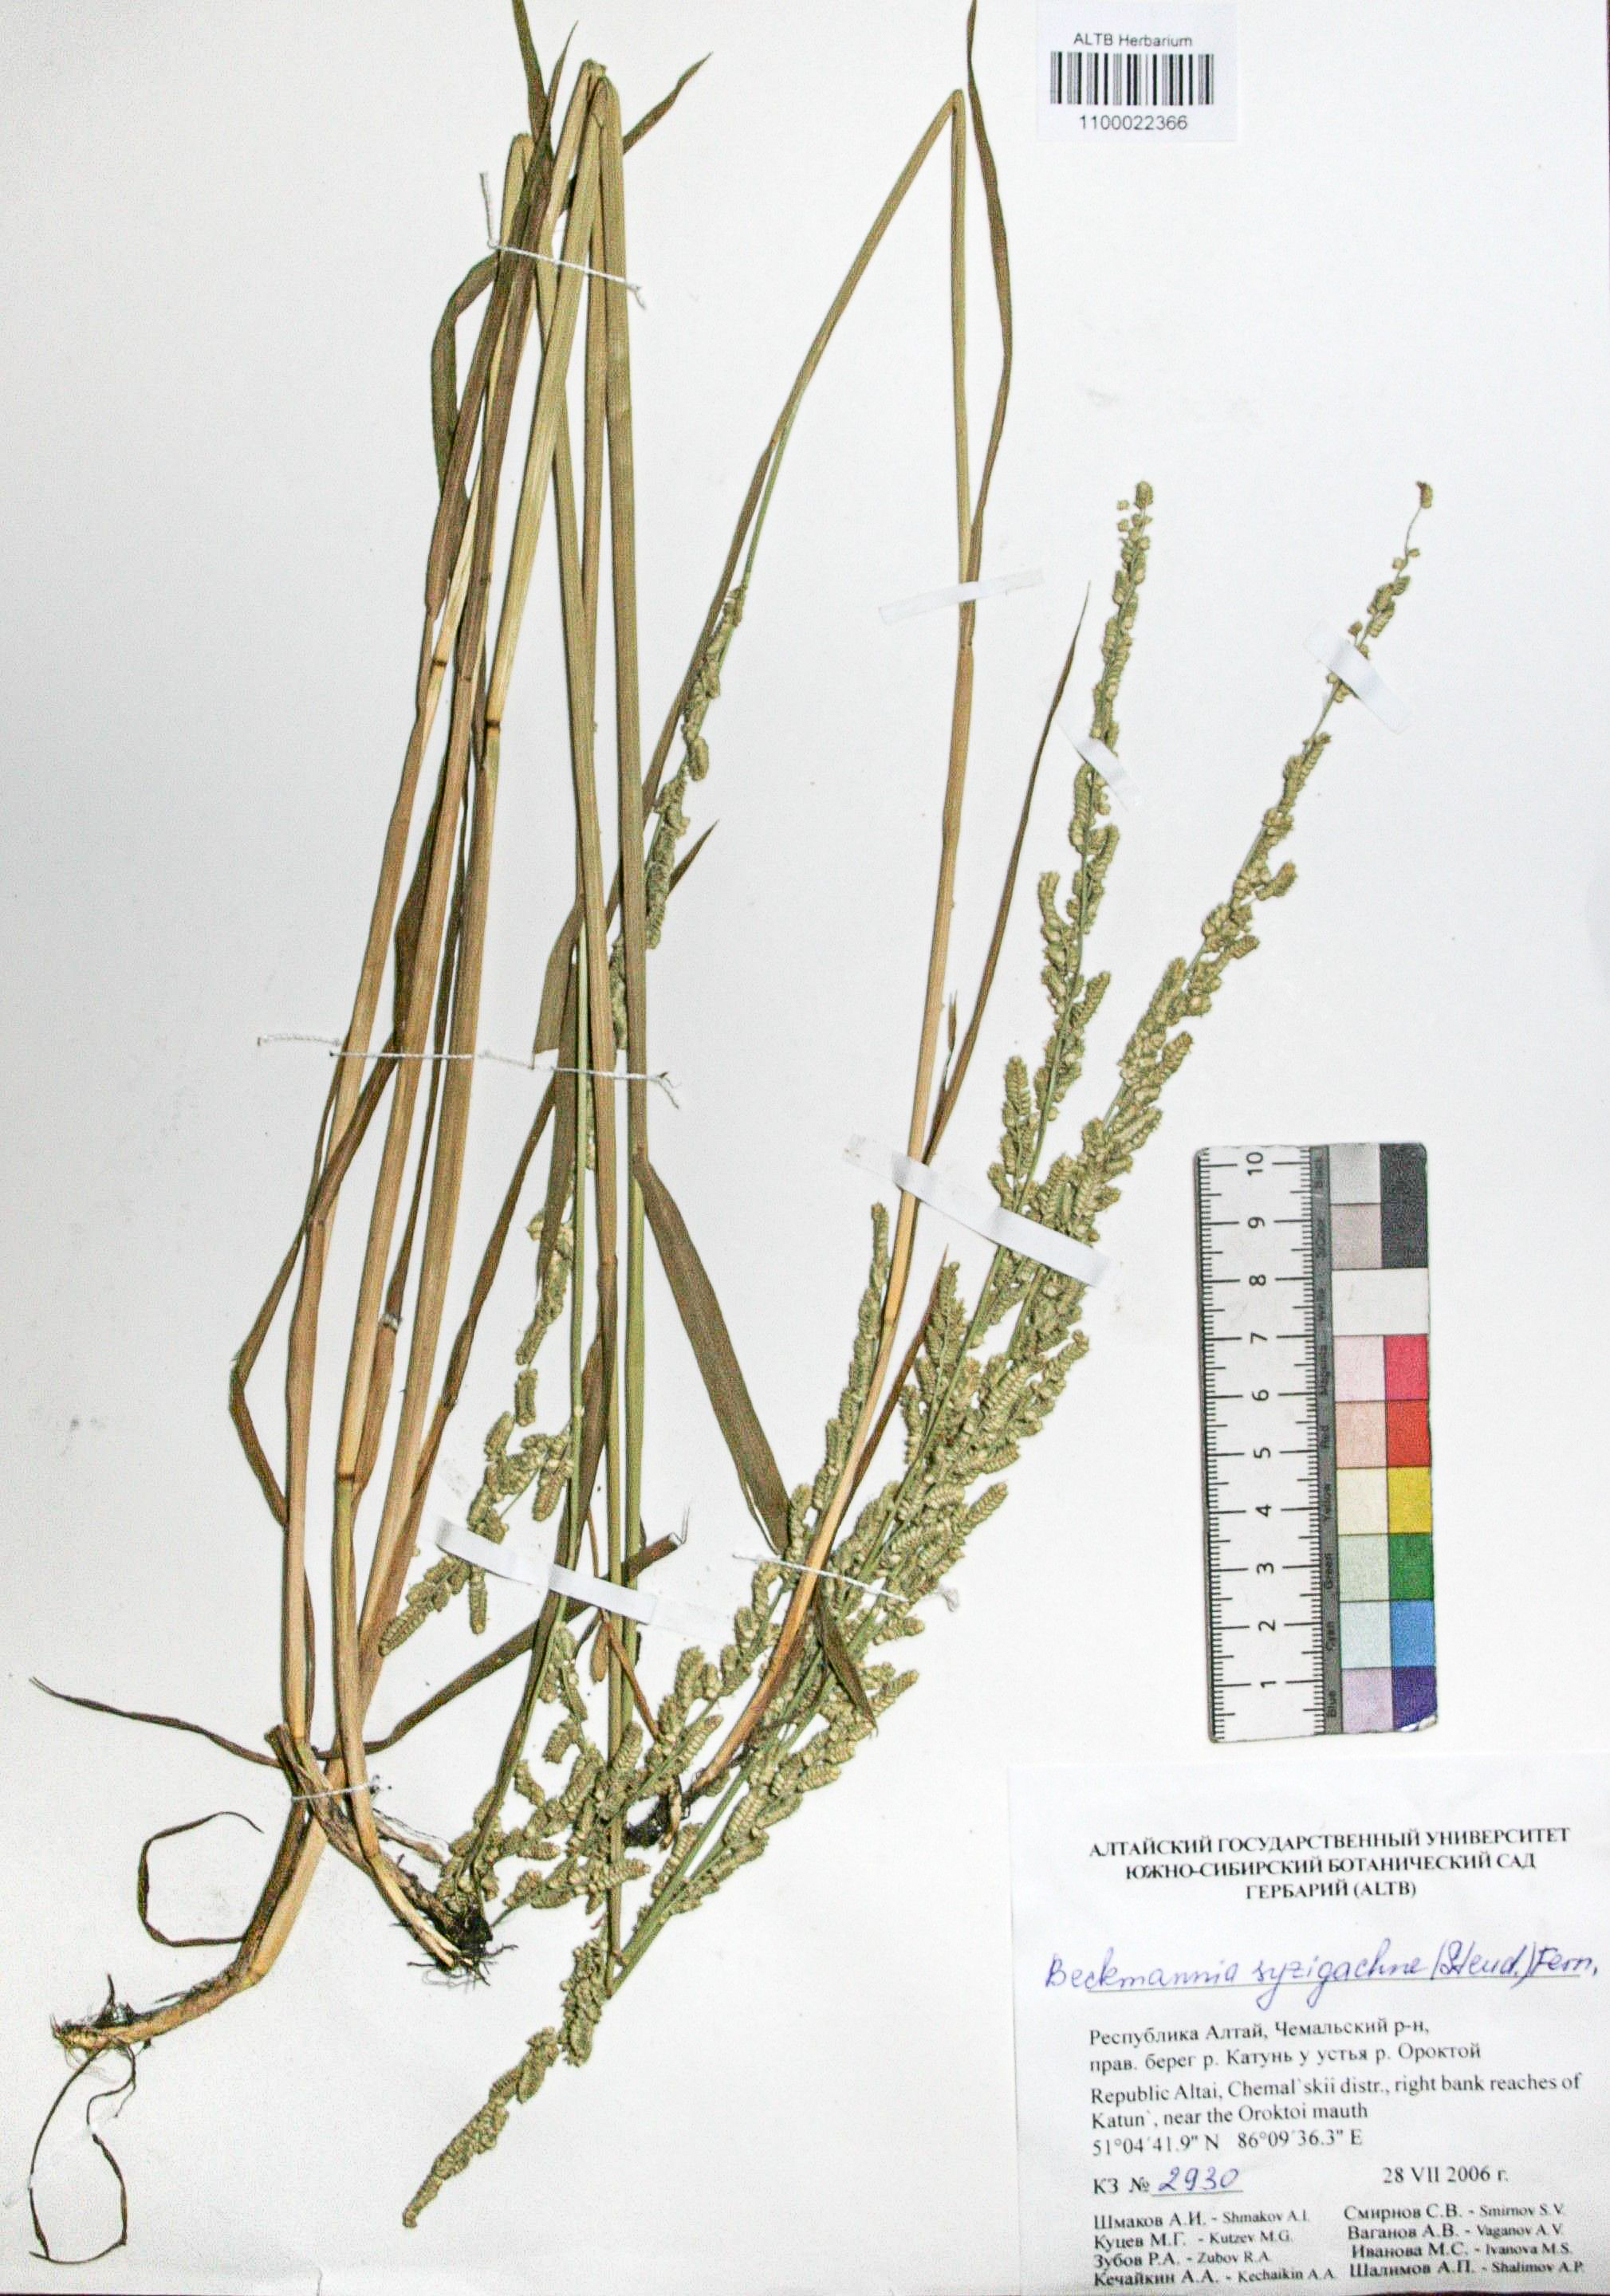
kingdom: Plantae
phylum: Tracheophyta
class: Liliopsida
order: Poales
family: Poaceae
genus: Beckmannia
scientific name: Beckmannia syzigachne
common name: American slough-grass
